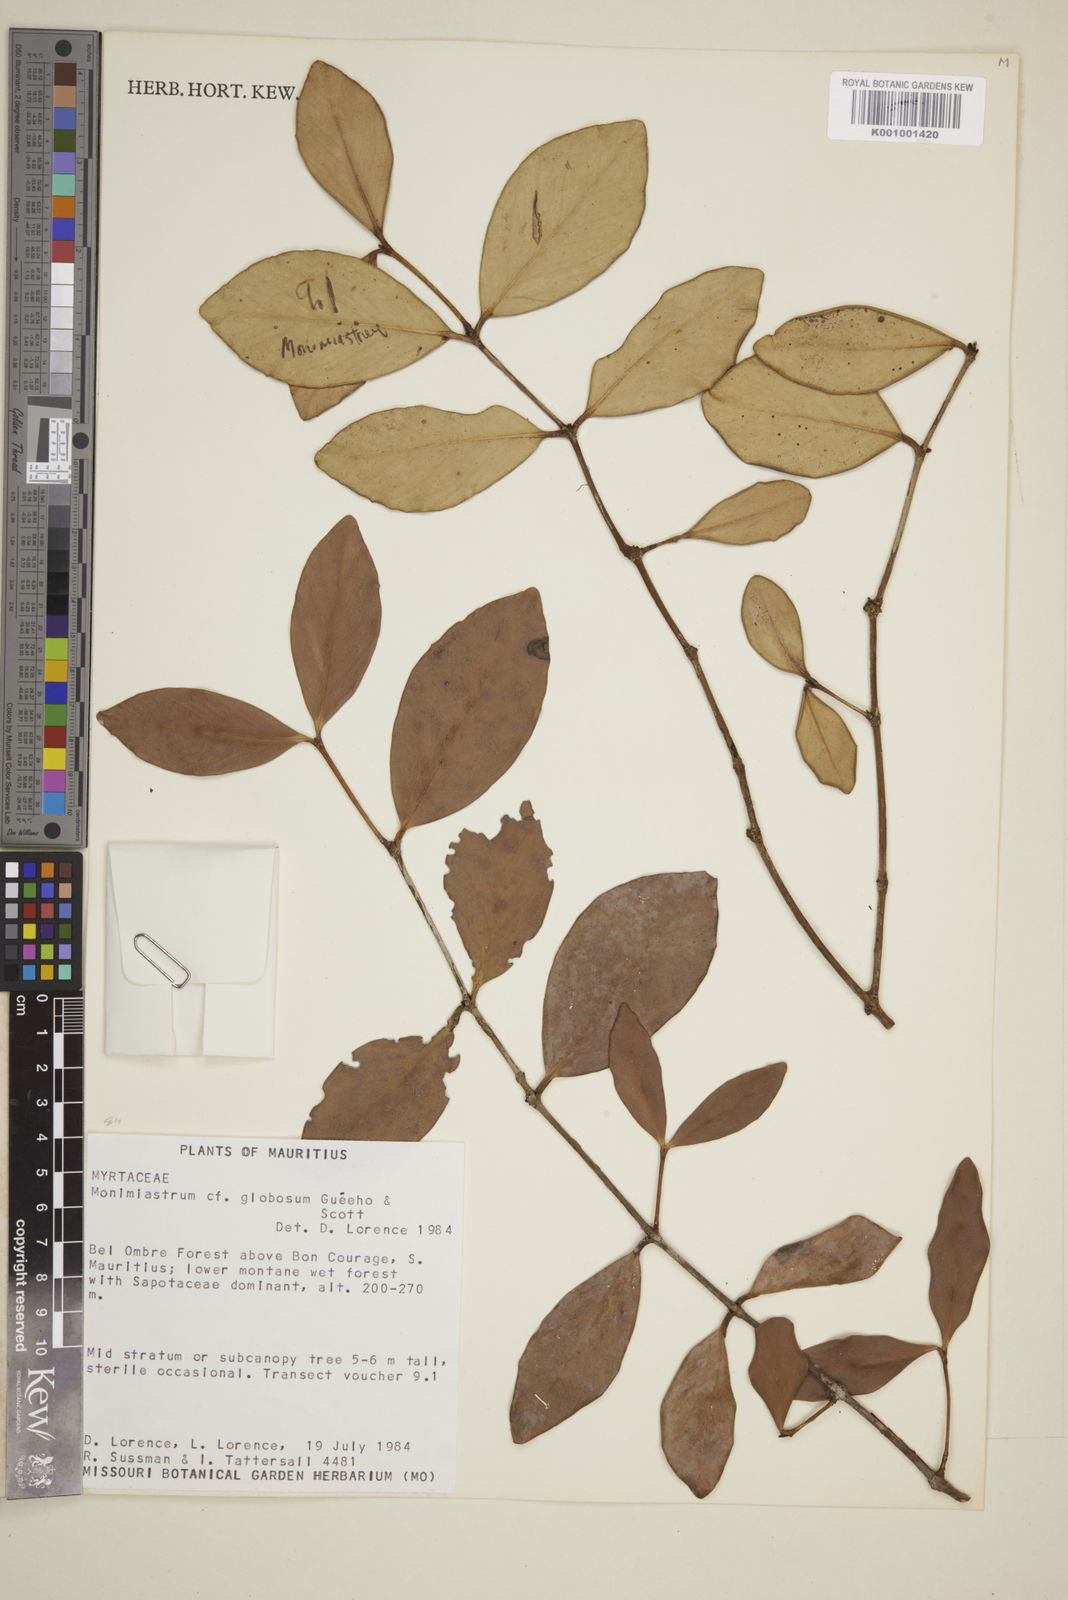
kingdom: Plantae
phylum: Tracheophyta
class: Magnoliopsida
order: Myrtales
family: Myrtaceae
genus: Eugenia
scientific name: Eugenia kanakana
